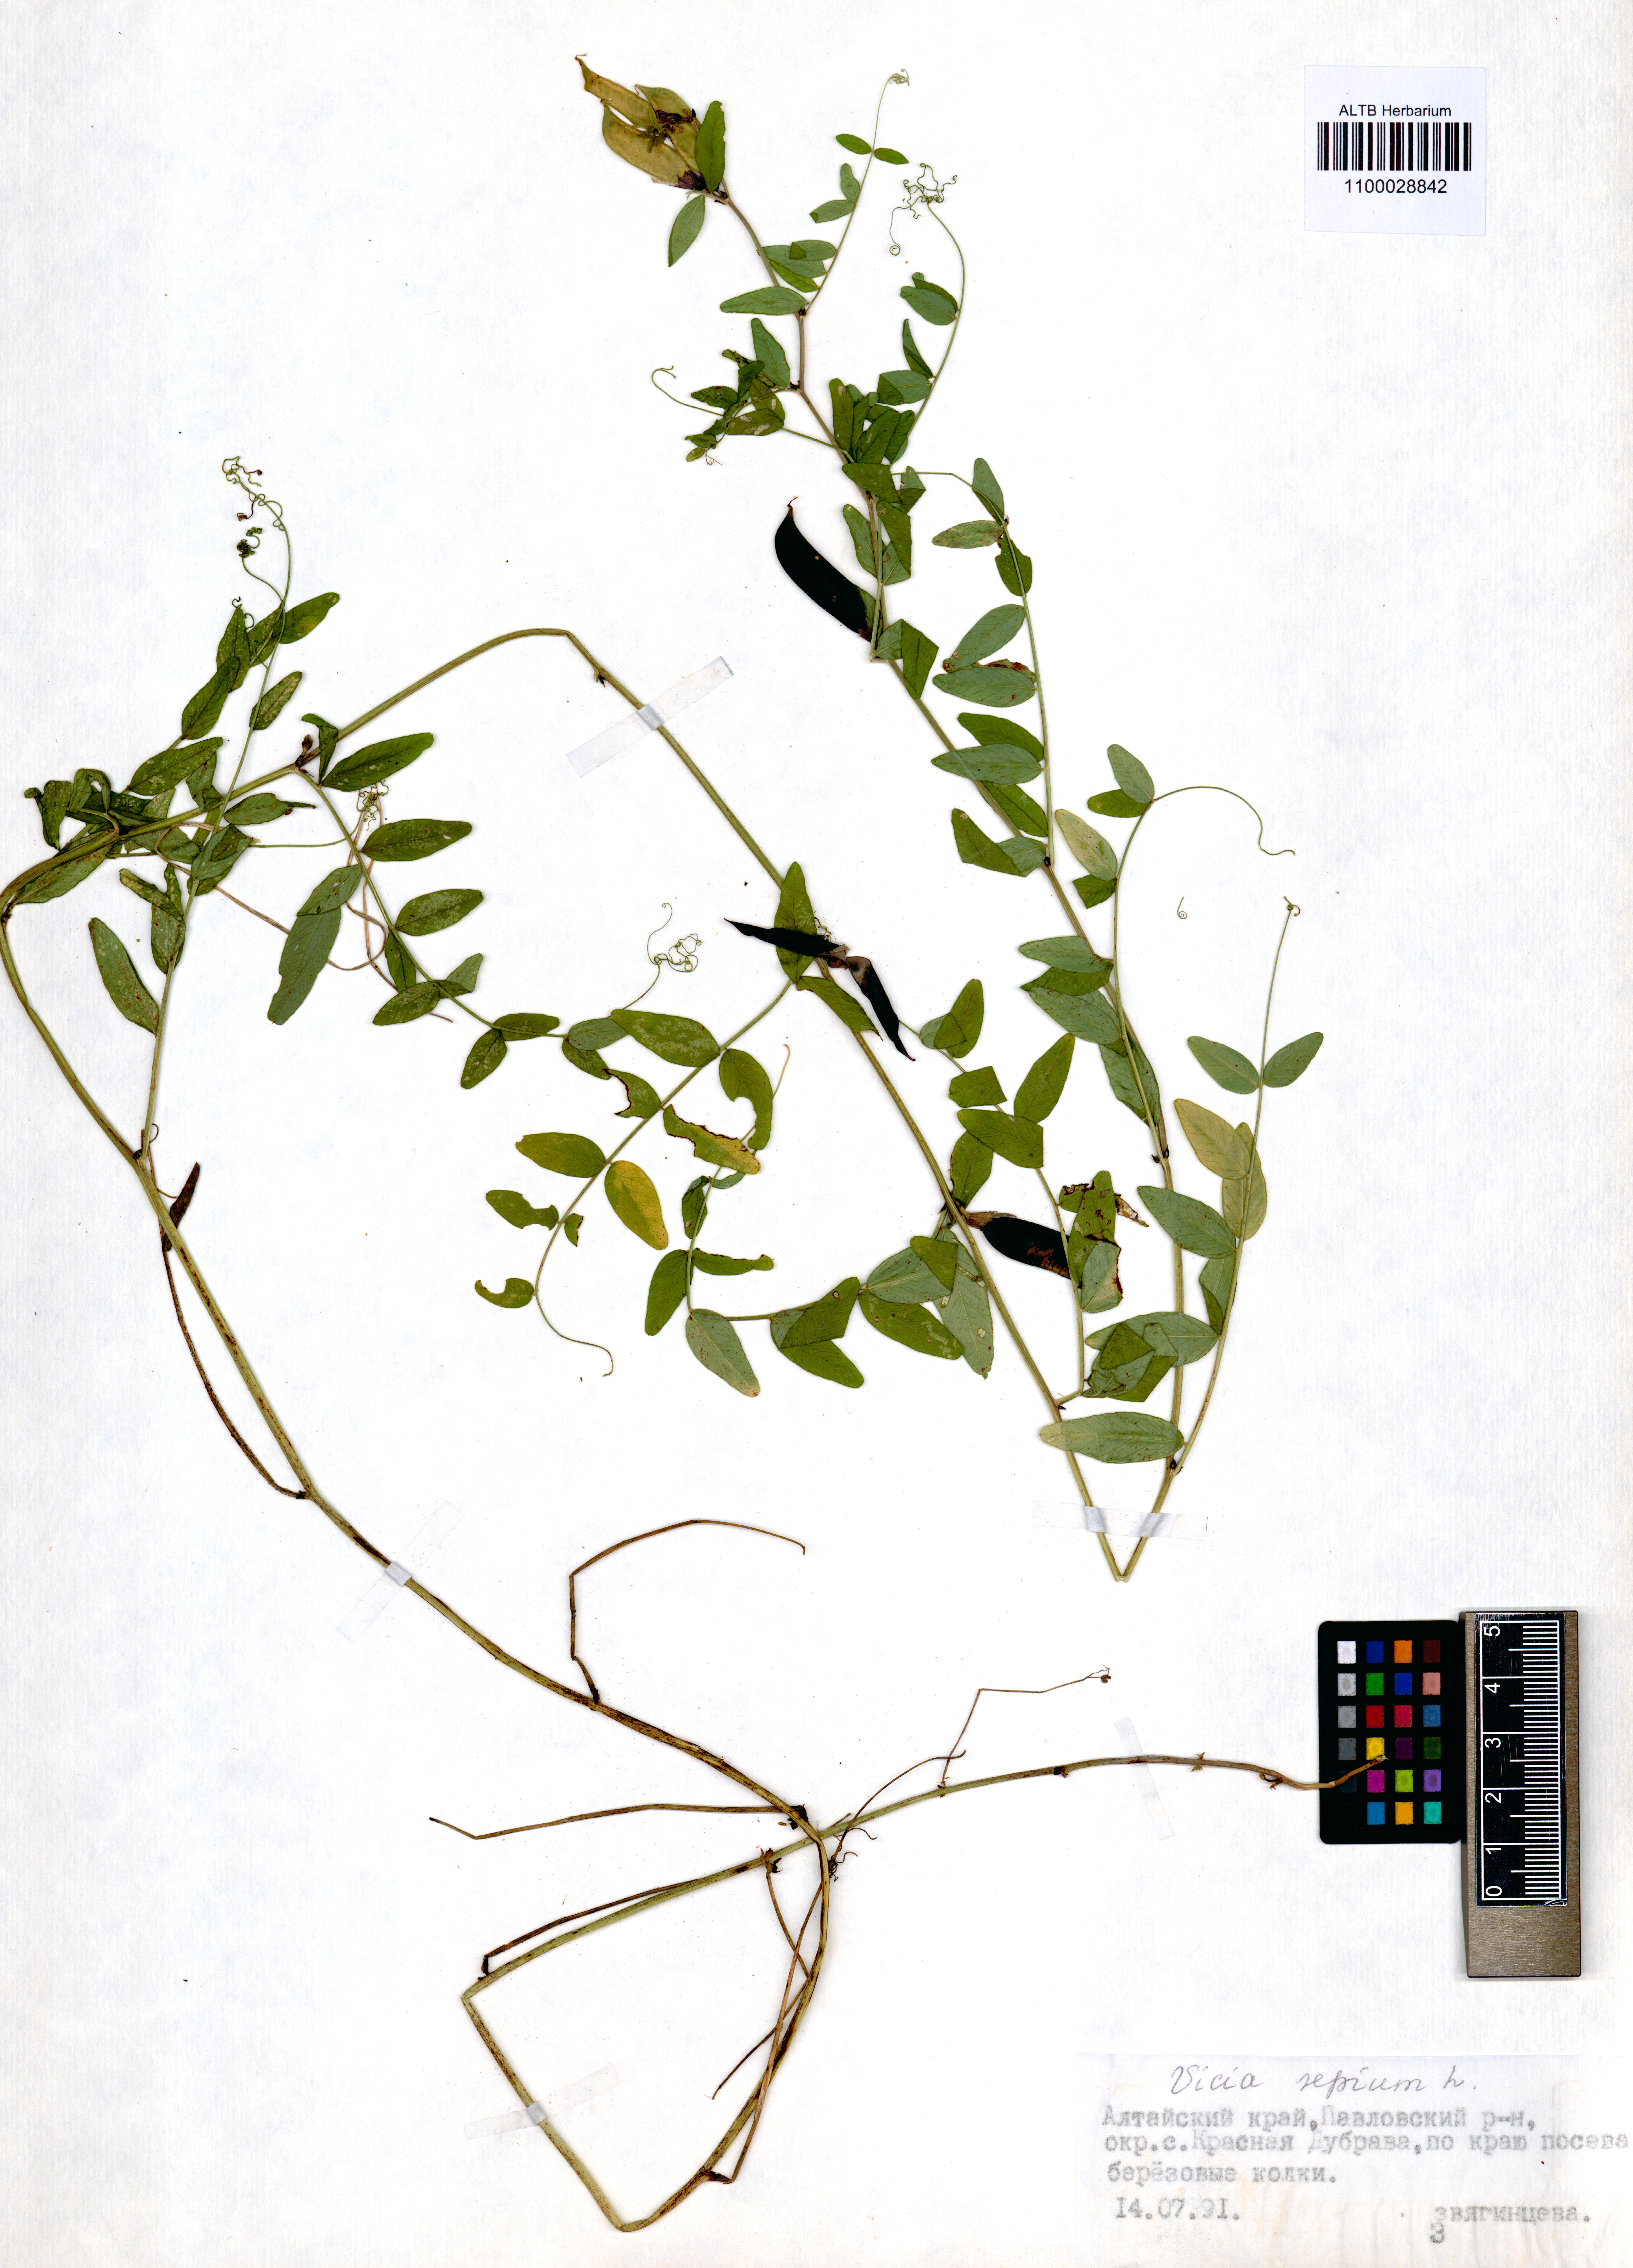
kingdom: Plantae
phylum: Tracheophyta
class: Magnoliopsida
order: Fabales
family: Fabaceae
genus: Vicia
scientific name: Vicia sepium
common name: Bush vetch
